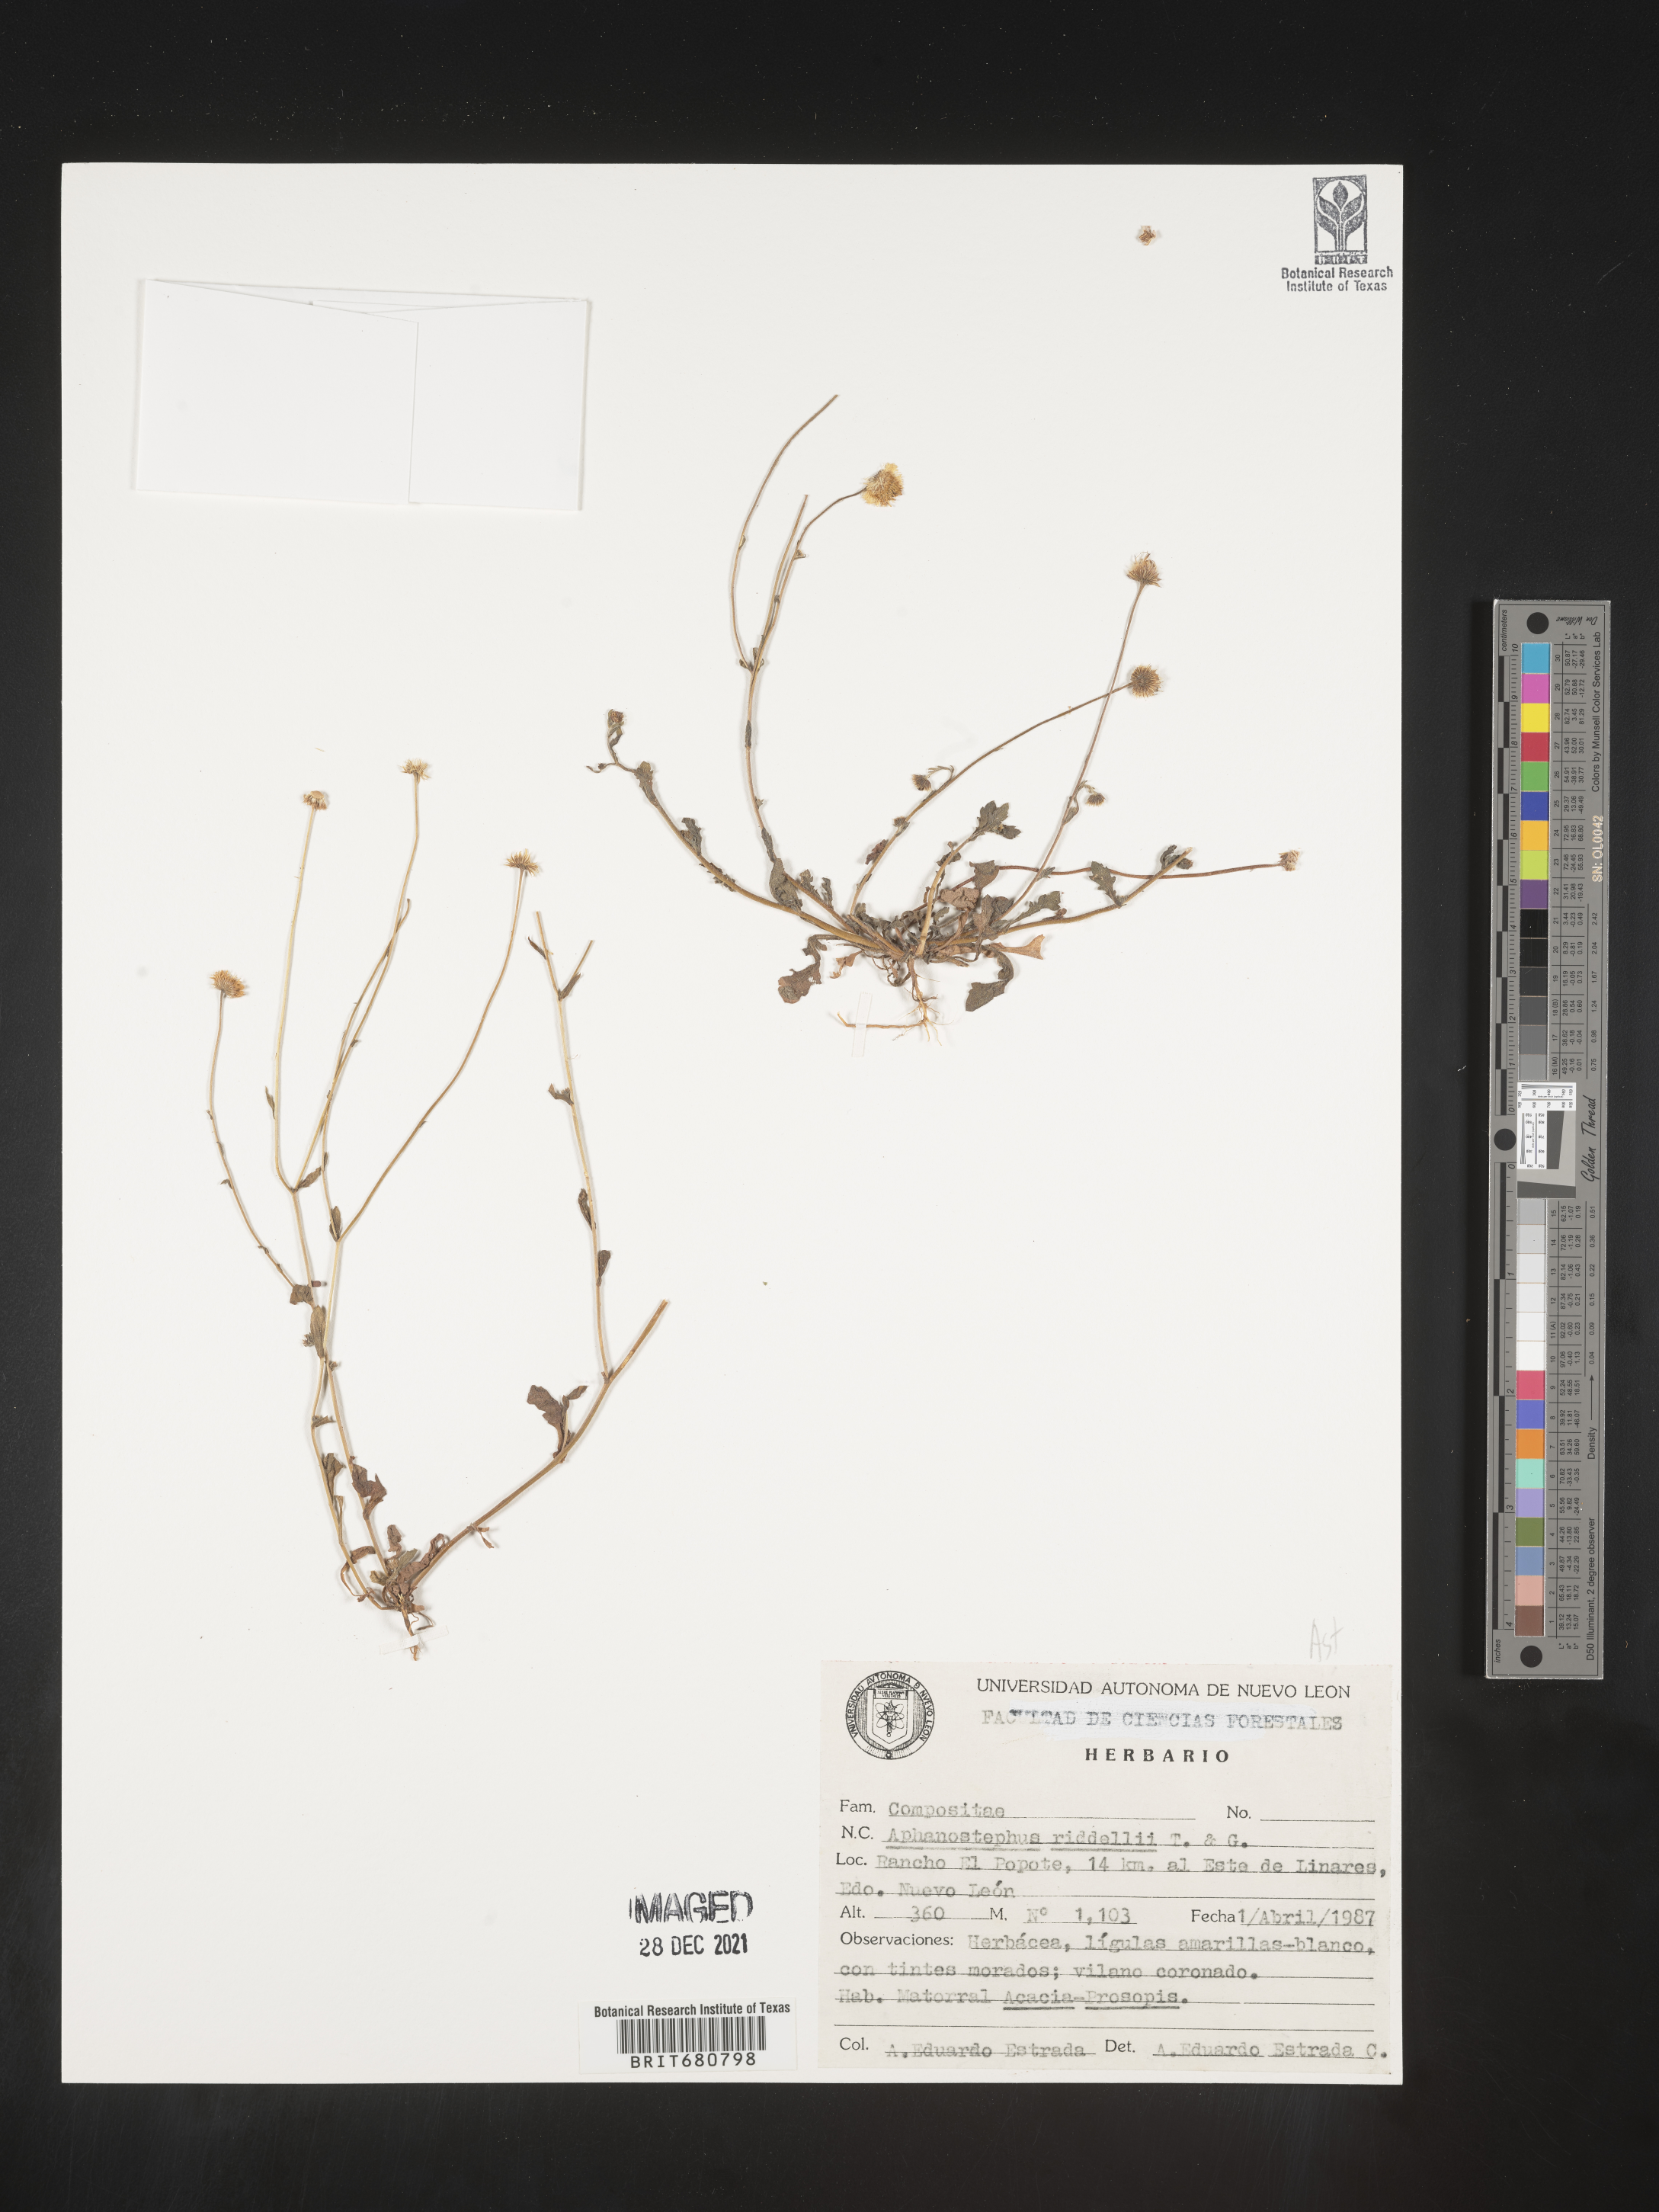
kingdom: Plantae
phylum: Tracheophyta
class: Magnoliopsida
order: Asterales
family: Asteraceae
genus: Aphanostephus
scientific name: Aphanostephus riddellii
